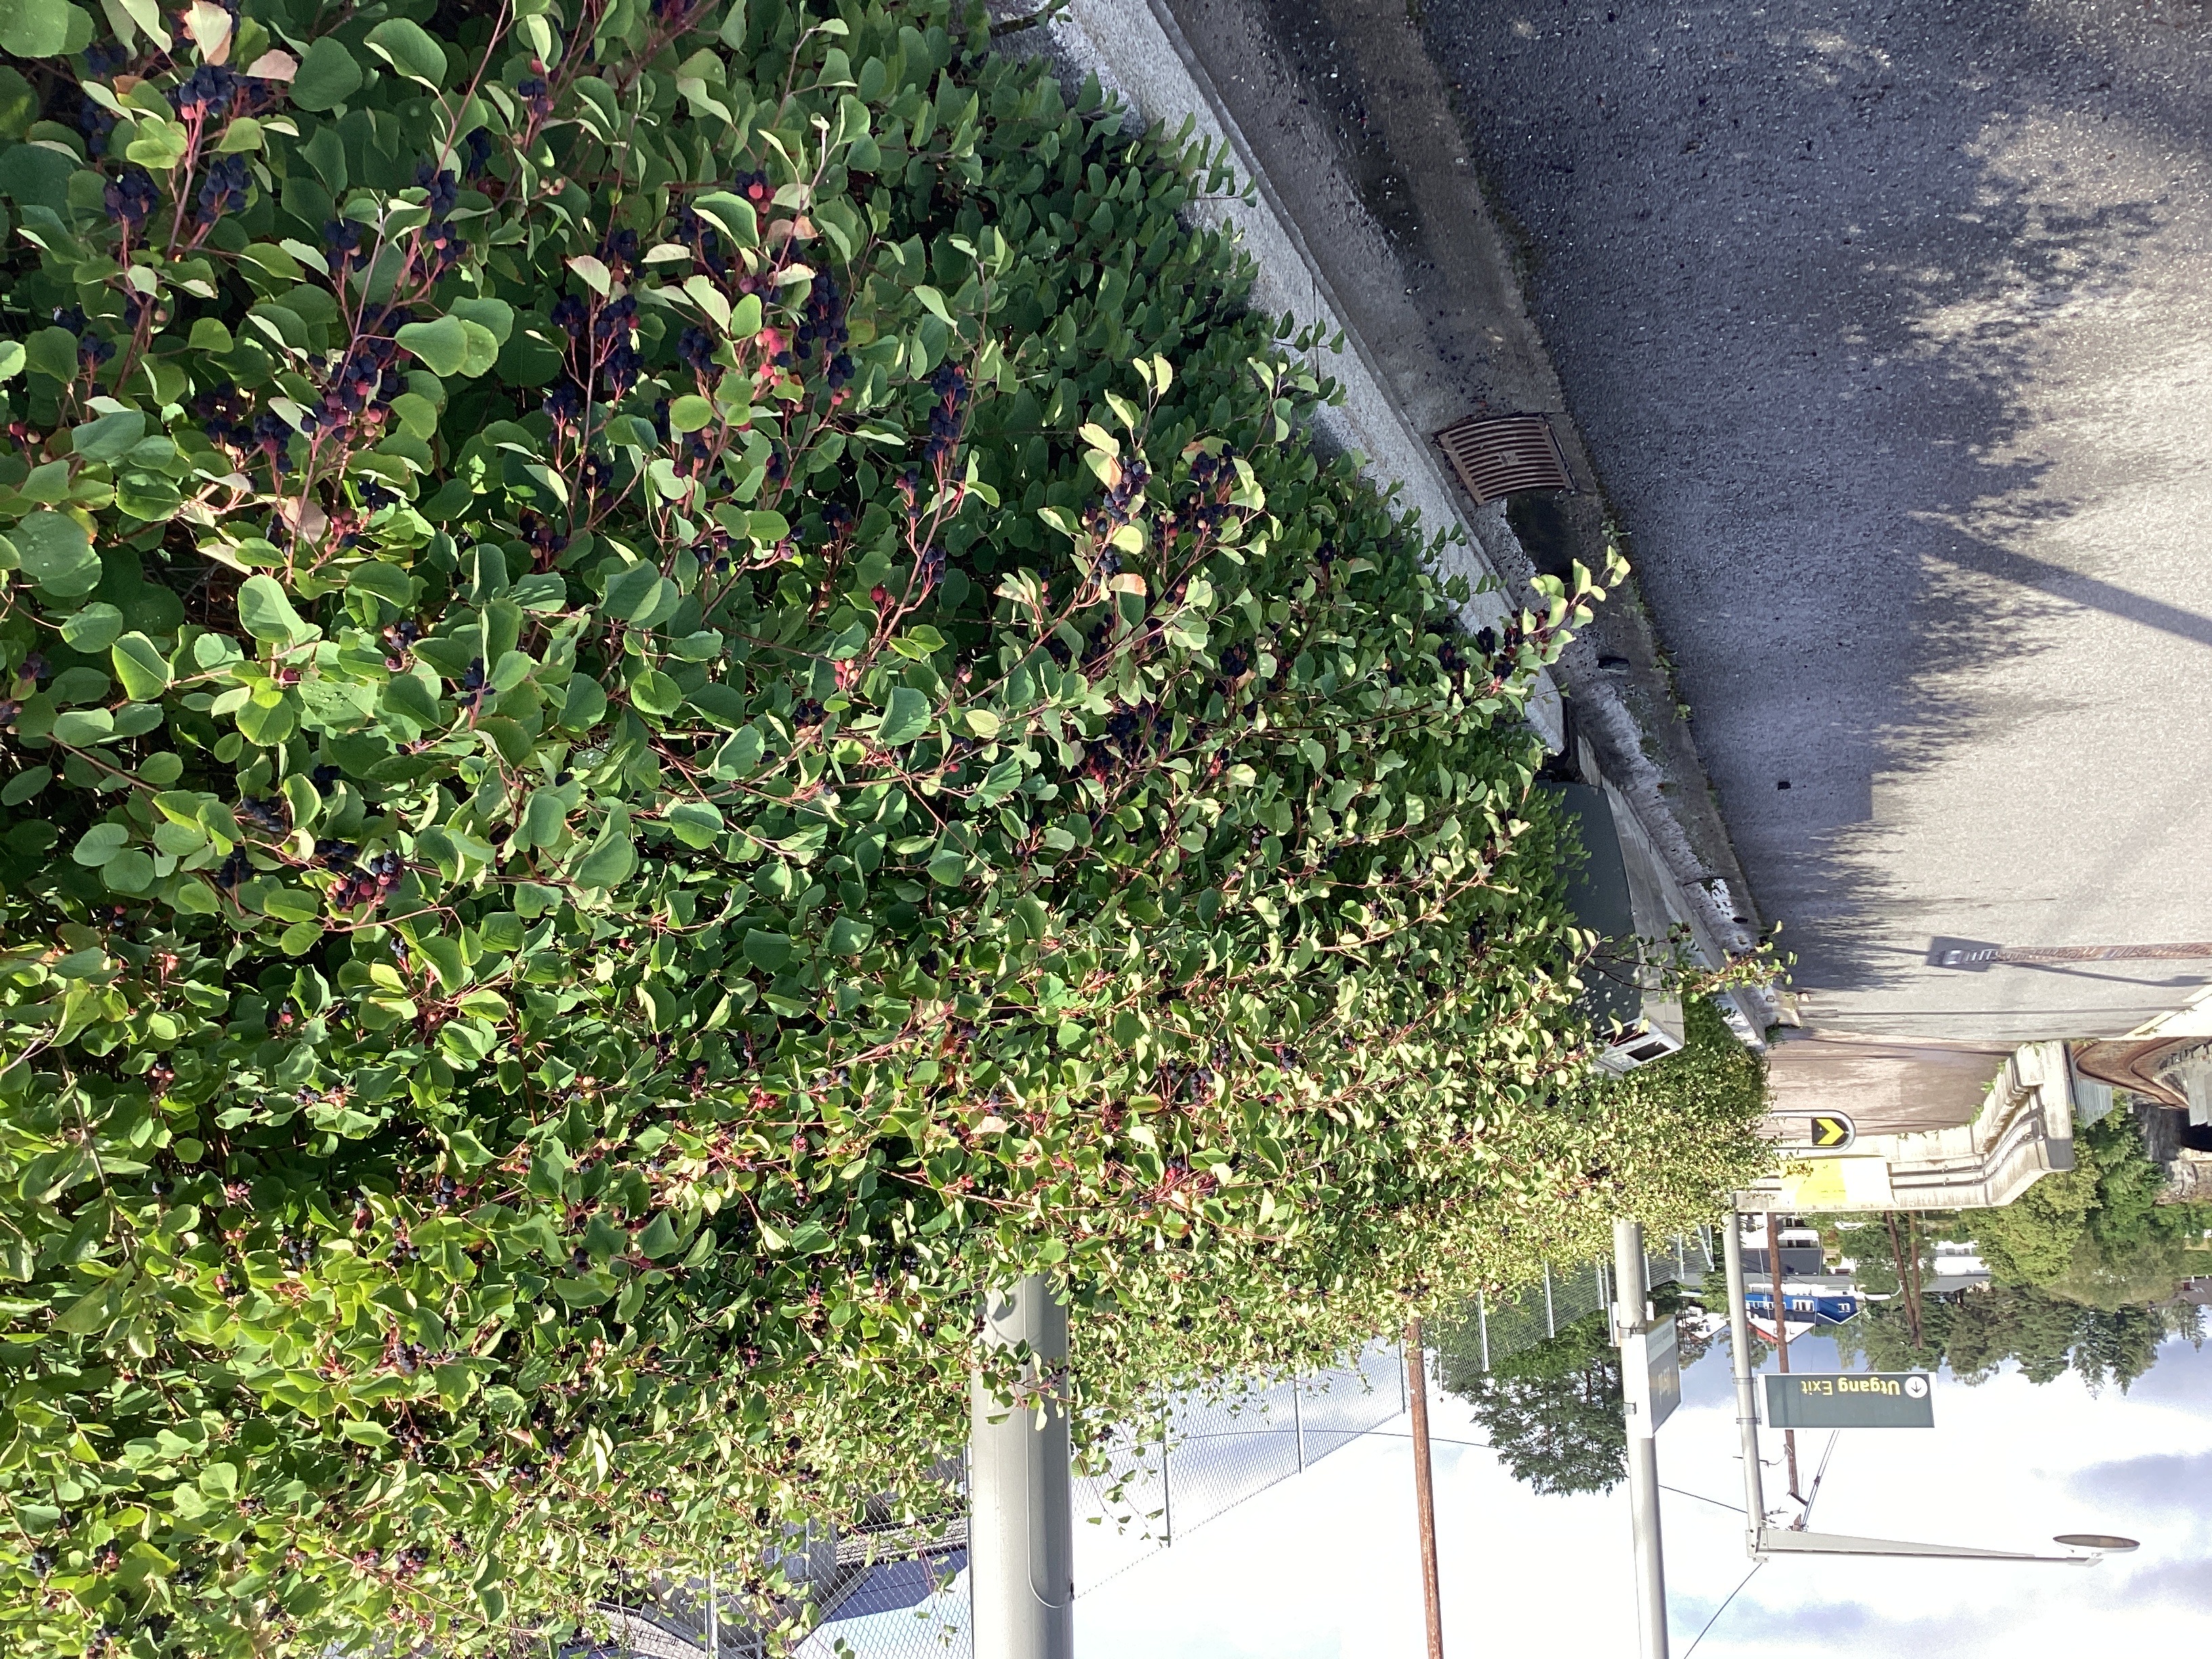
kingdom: Plantae
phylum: Tracheophyta
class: Magnoliopsida
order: Rosales
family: Rosaceae
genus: Amelanchier
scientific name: Amelanchier alnifolia
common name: taggblåhegg
